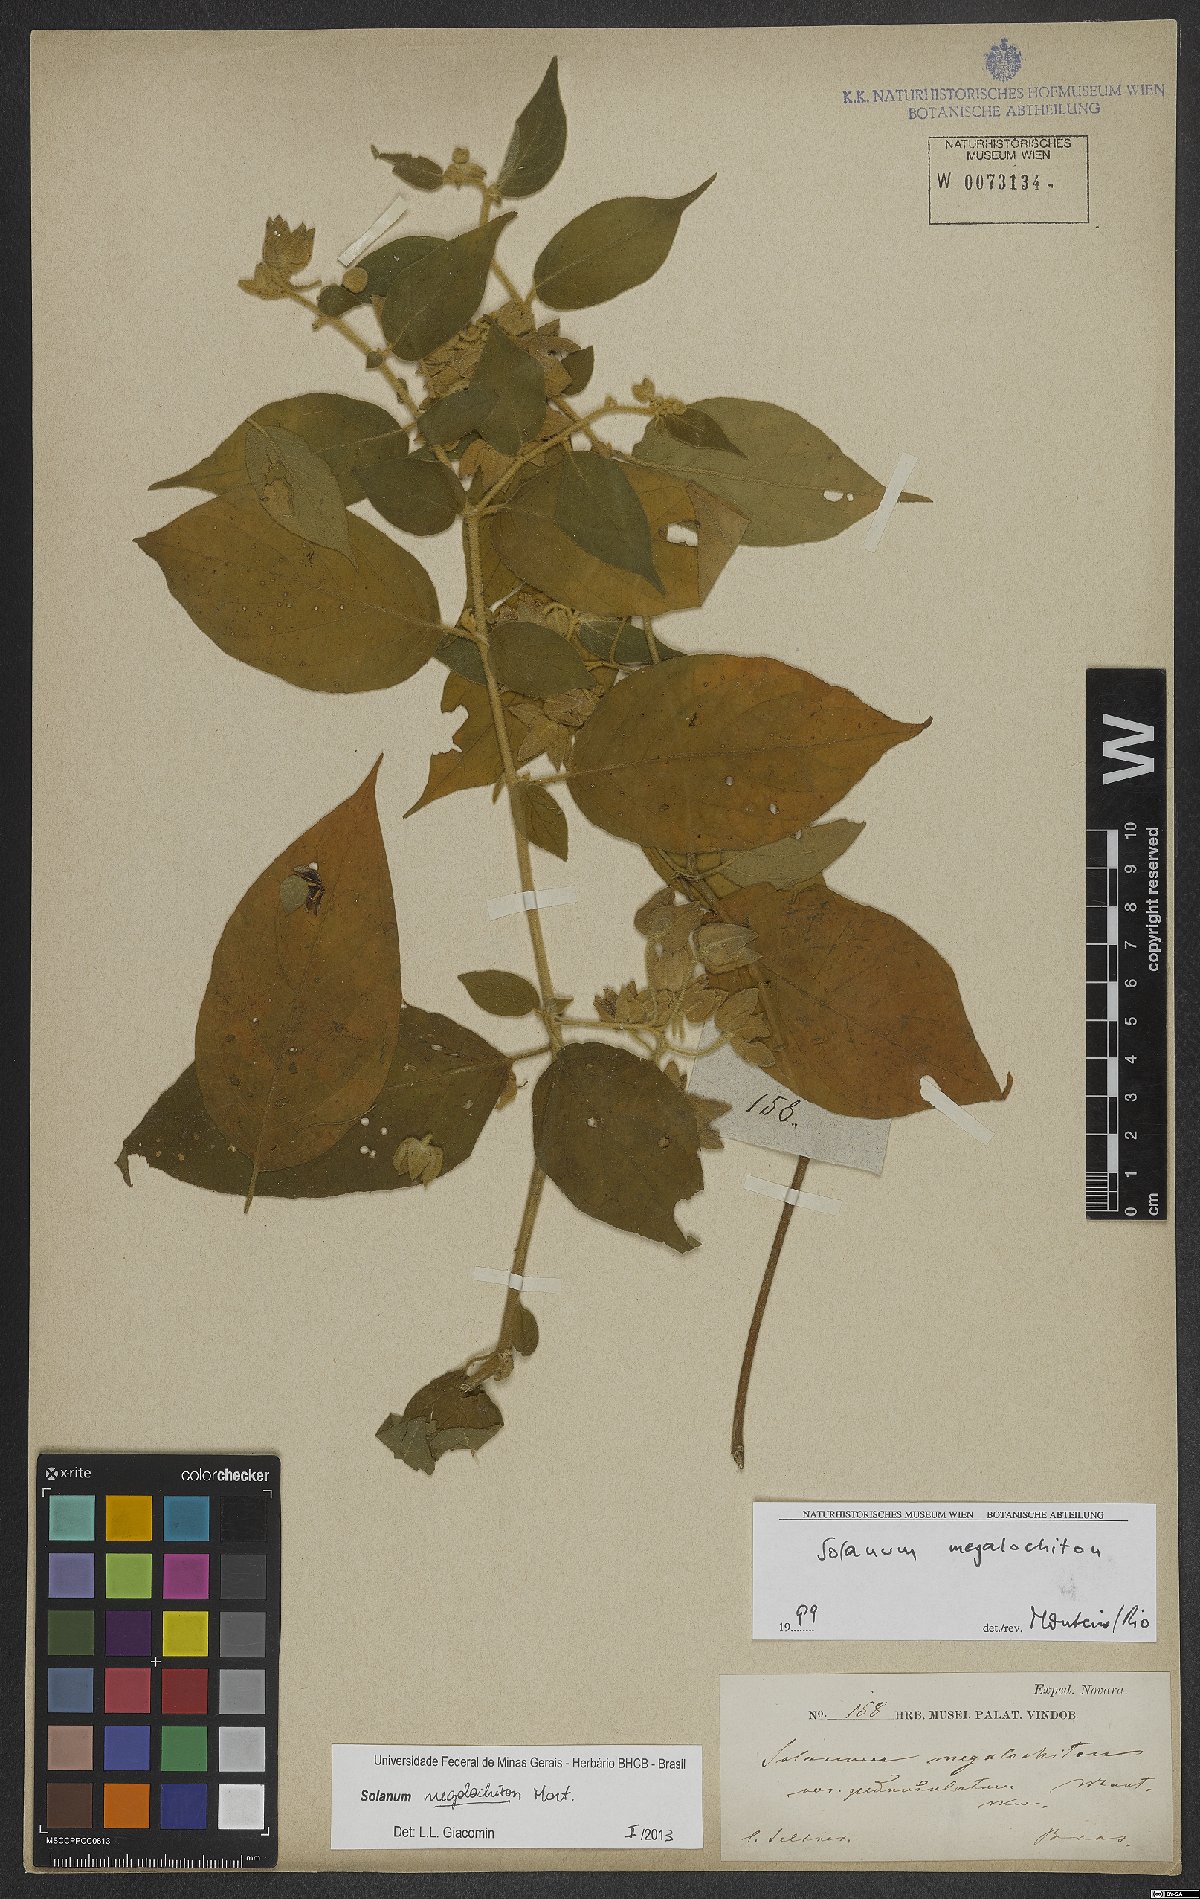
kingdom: Plantae
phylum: Tracheophyta
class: Magnoliopsida
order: Solanales
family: Solanaceae
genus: Solanum
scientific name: Solanum megalochiton
